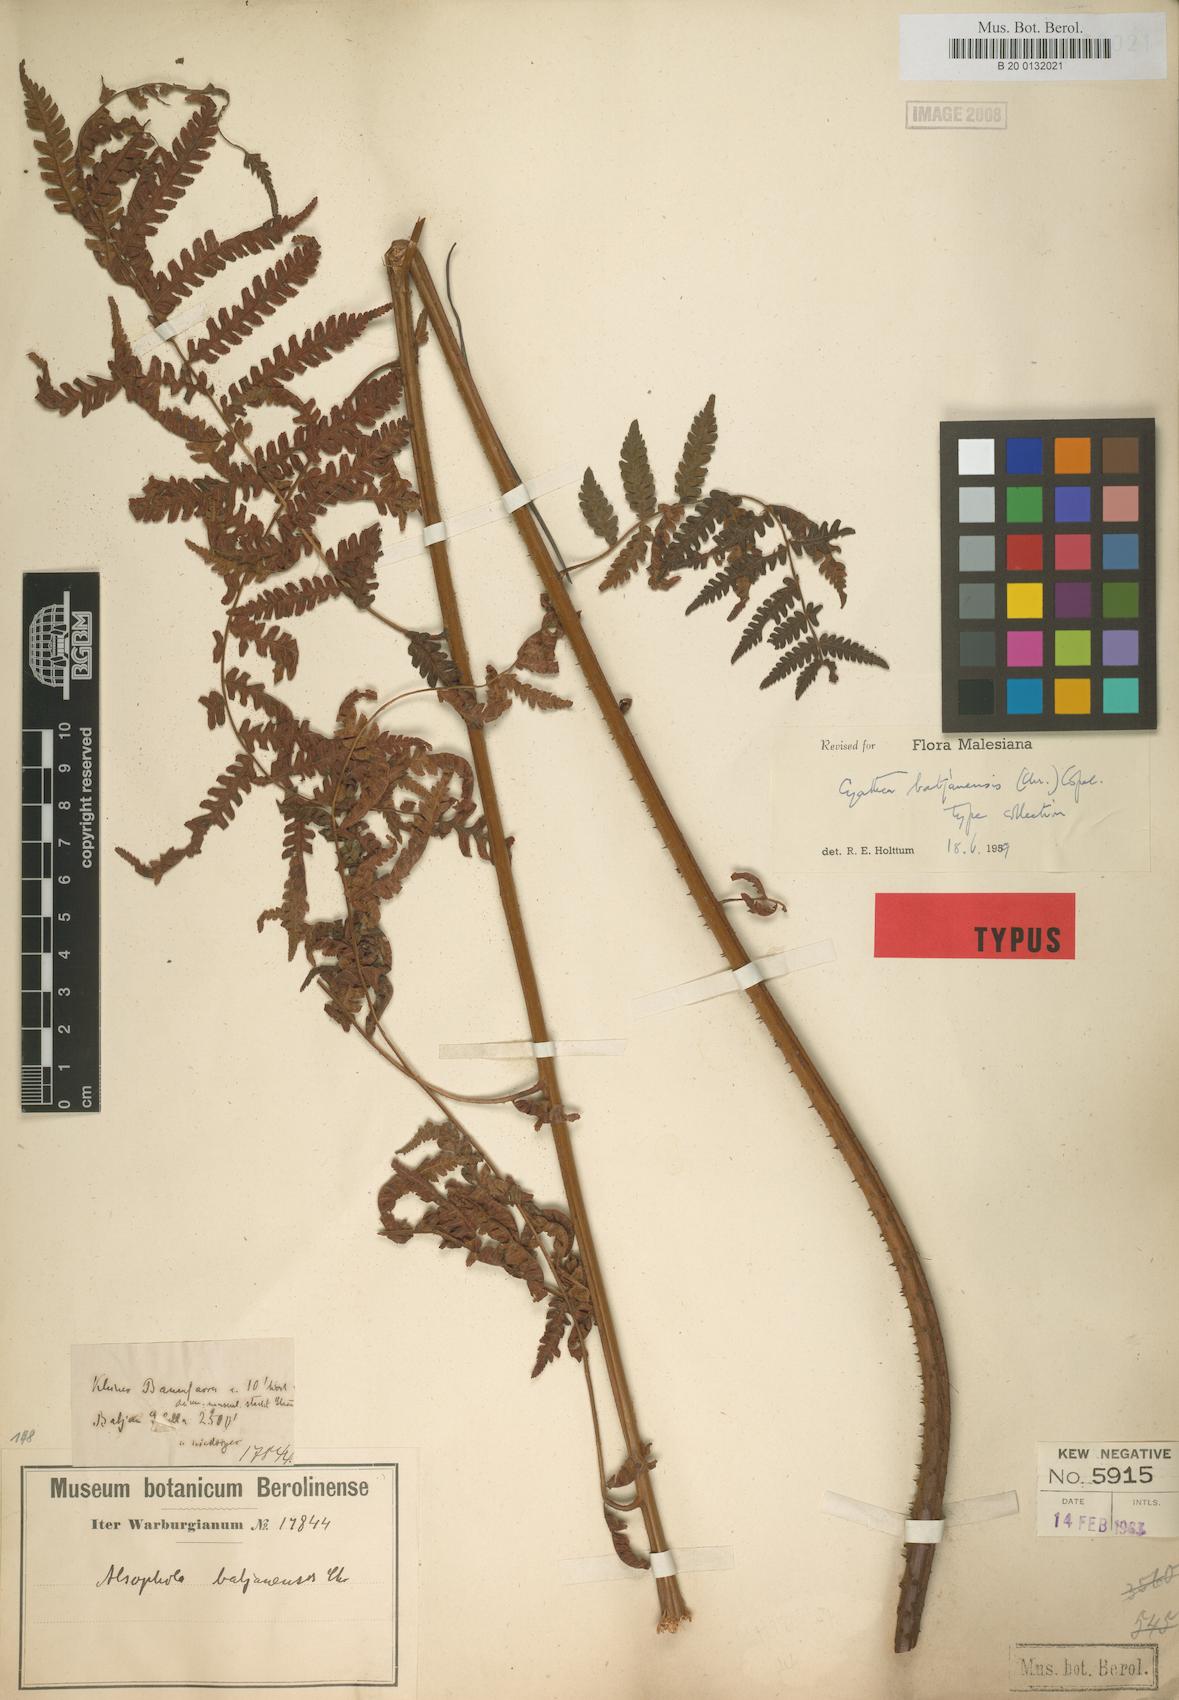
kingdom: Plantae
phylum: Tracheophyta
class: Polypodiopsida
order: Cyatheales
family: Cyatheaceae
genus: Alsophila
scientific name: Alsophila batjanensis
